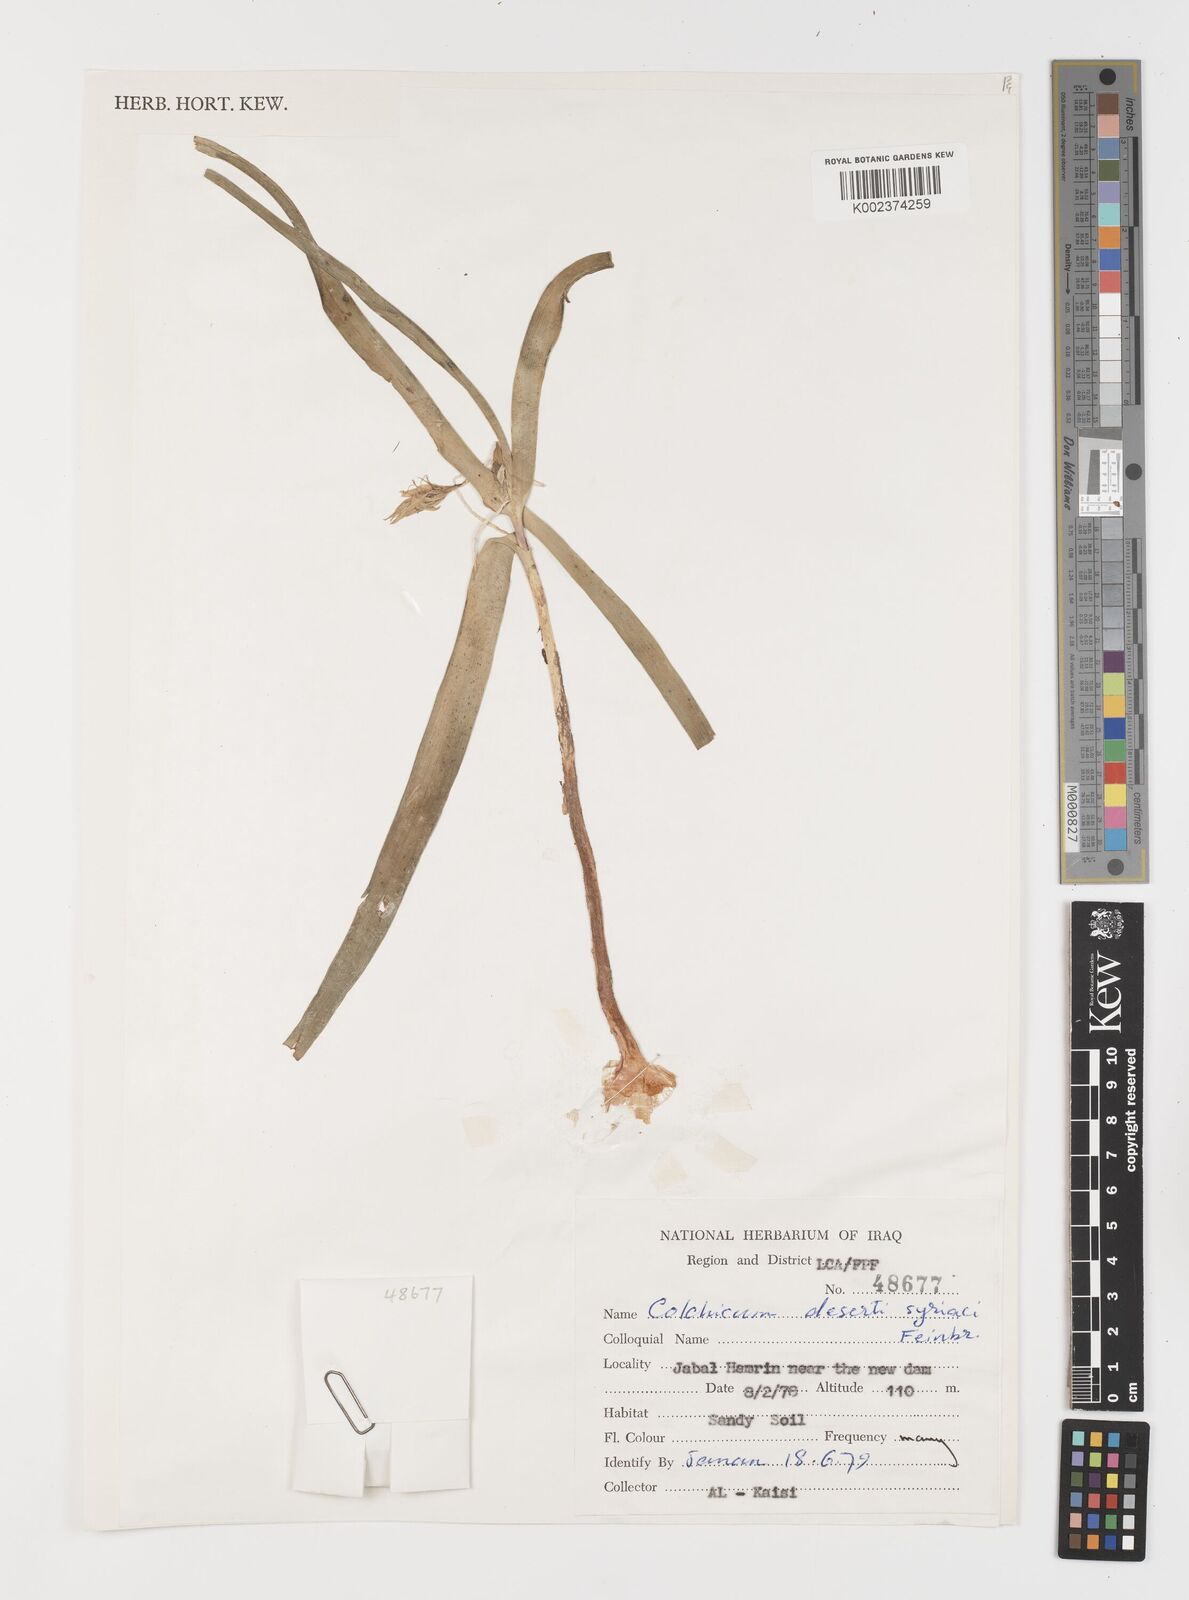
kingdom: Plantae
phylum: Tracheophyta
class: Liliopsida
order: Liliales
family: Colchicaceae
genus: Colchicum
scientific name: Colchicum schimperi
